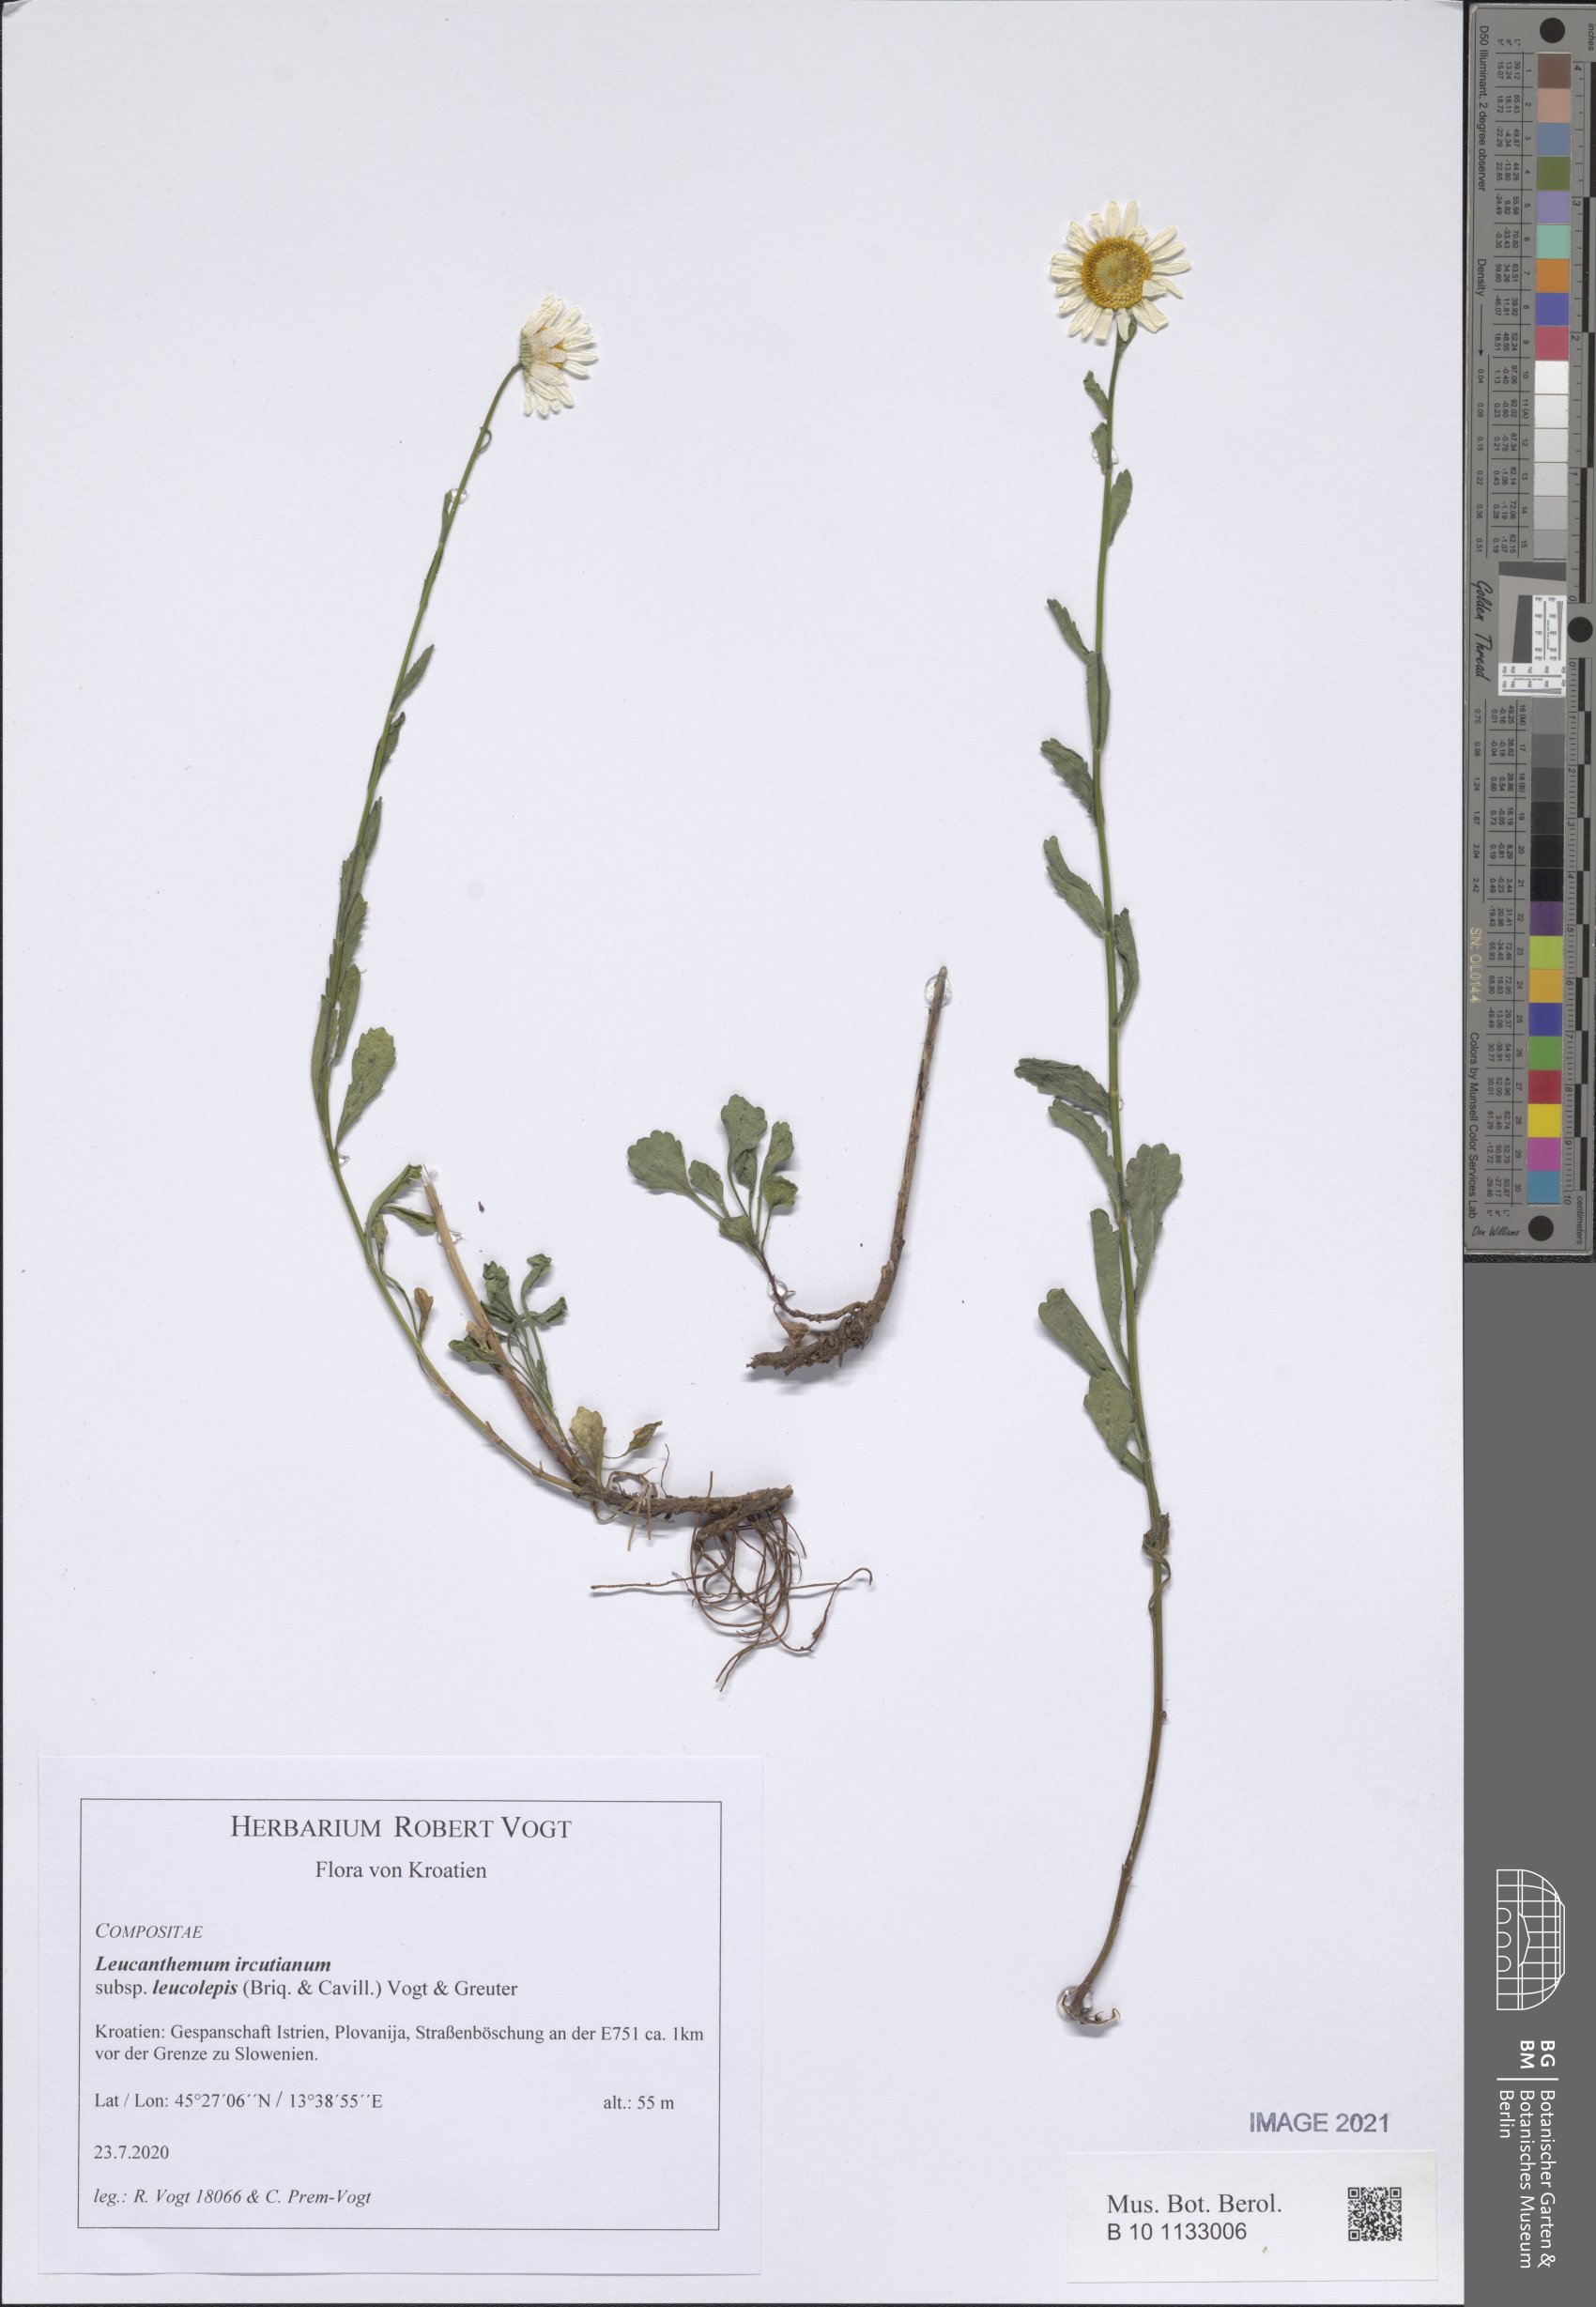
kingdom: Plantae
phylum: Tracheophyta
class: Magnoliopsida
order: Asterales
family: Asteraceae
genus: Leucanthemum
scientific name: Leucanthemum ircutianum
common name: Daisy
